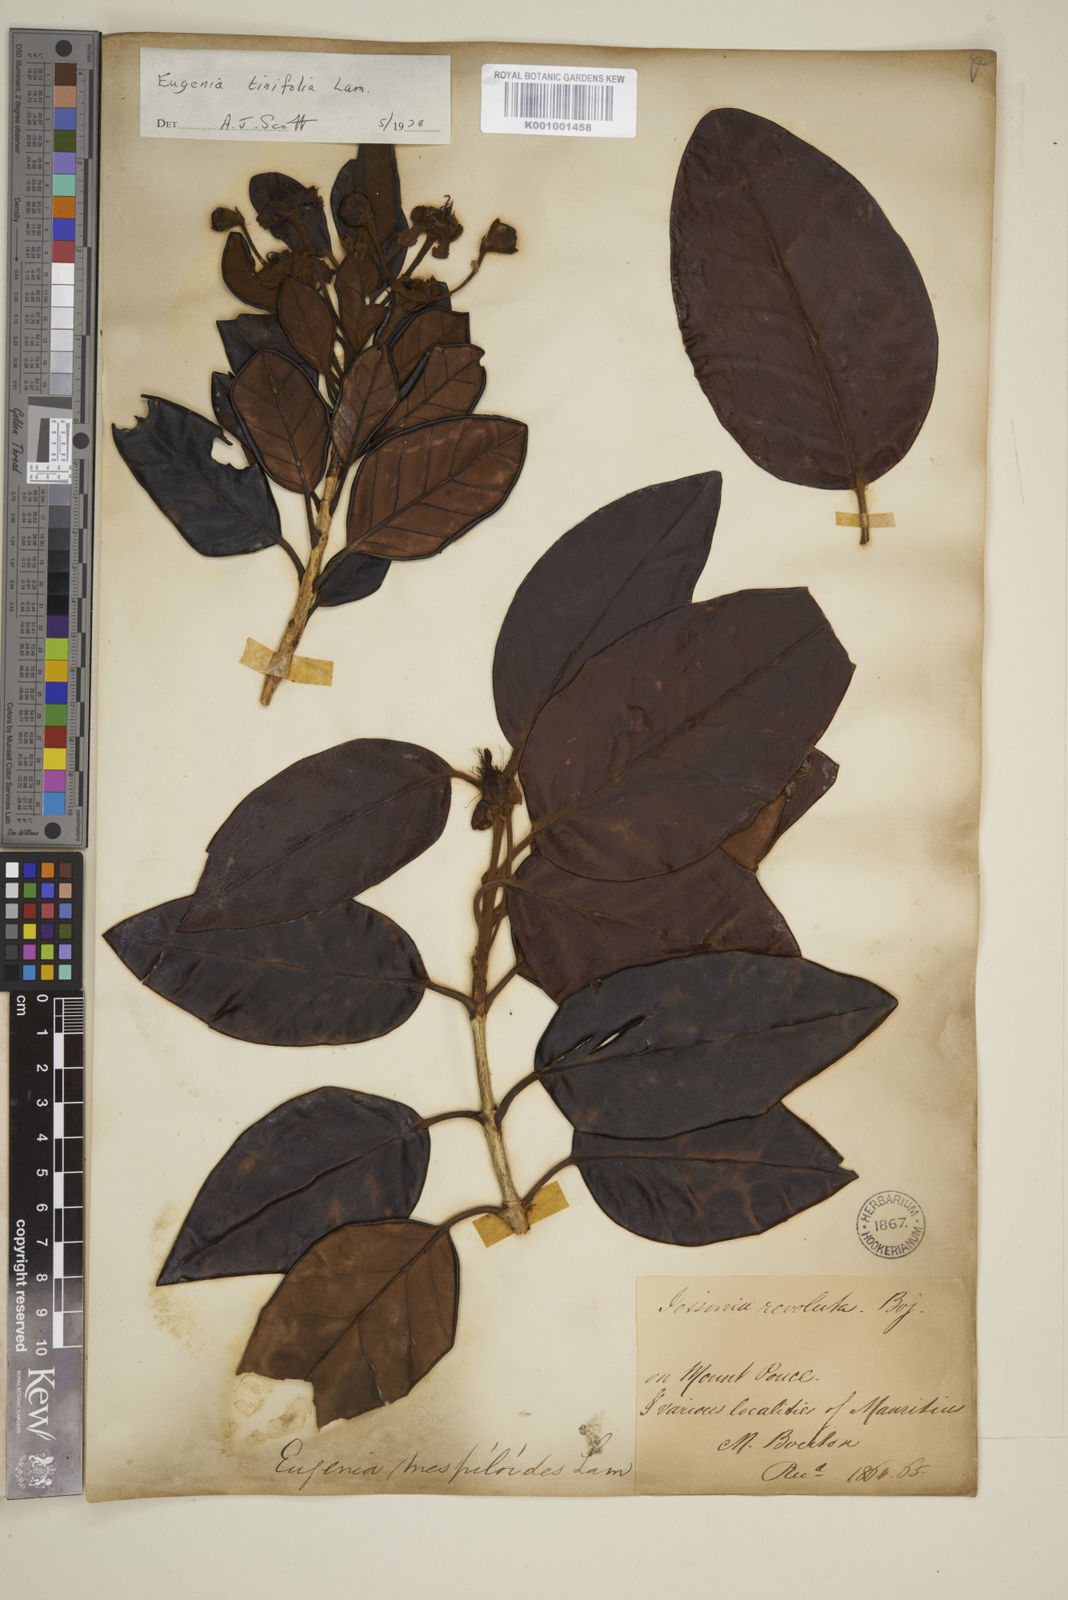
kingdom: Plantae
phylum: Tracheophyta
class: Magnoliopsida
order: Myrtales
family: Myrtaceae
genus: Eugenia
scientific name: Eugenia tinifolia
